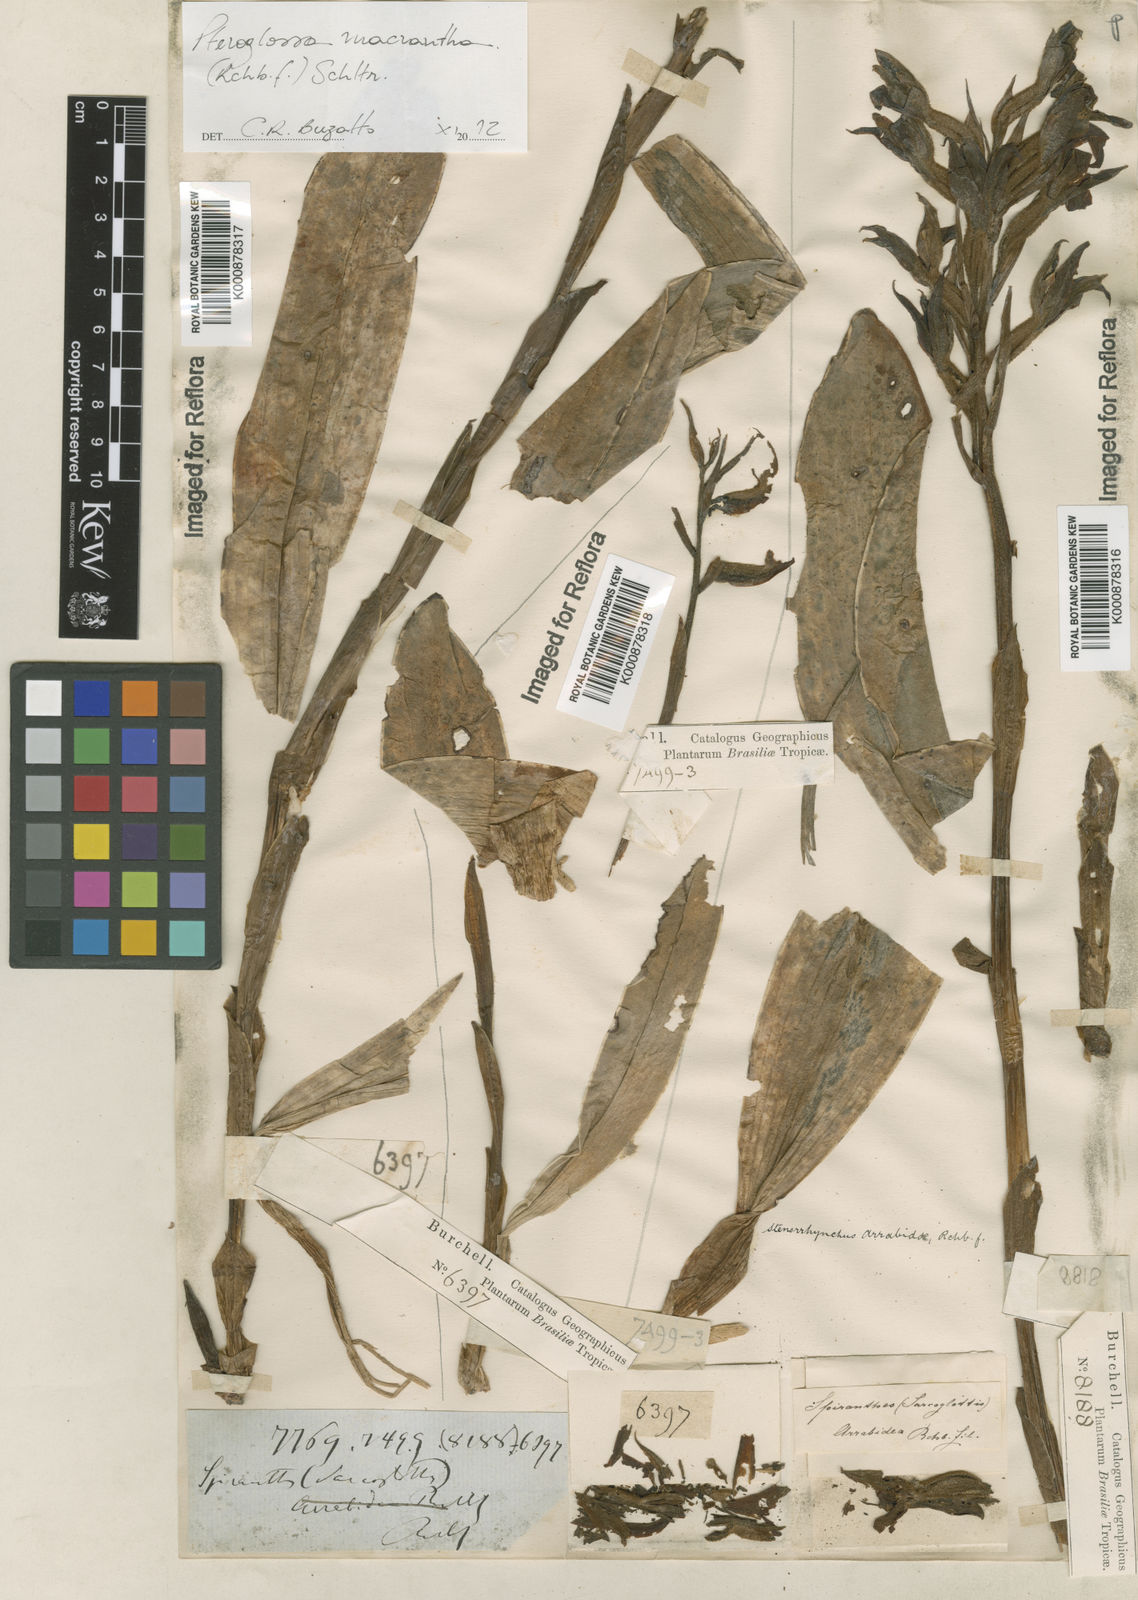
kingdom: Plantae
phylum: Tracheophyta
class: Liliopsida
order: Asparagales
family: Orchidaceae
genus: Pteroglossa
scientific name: Pteroglossa macrantha
